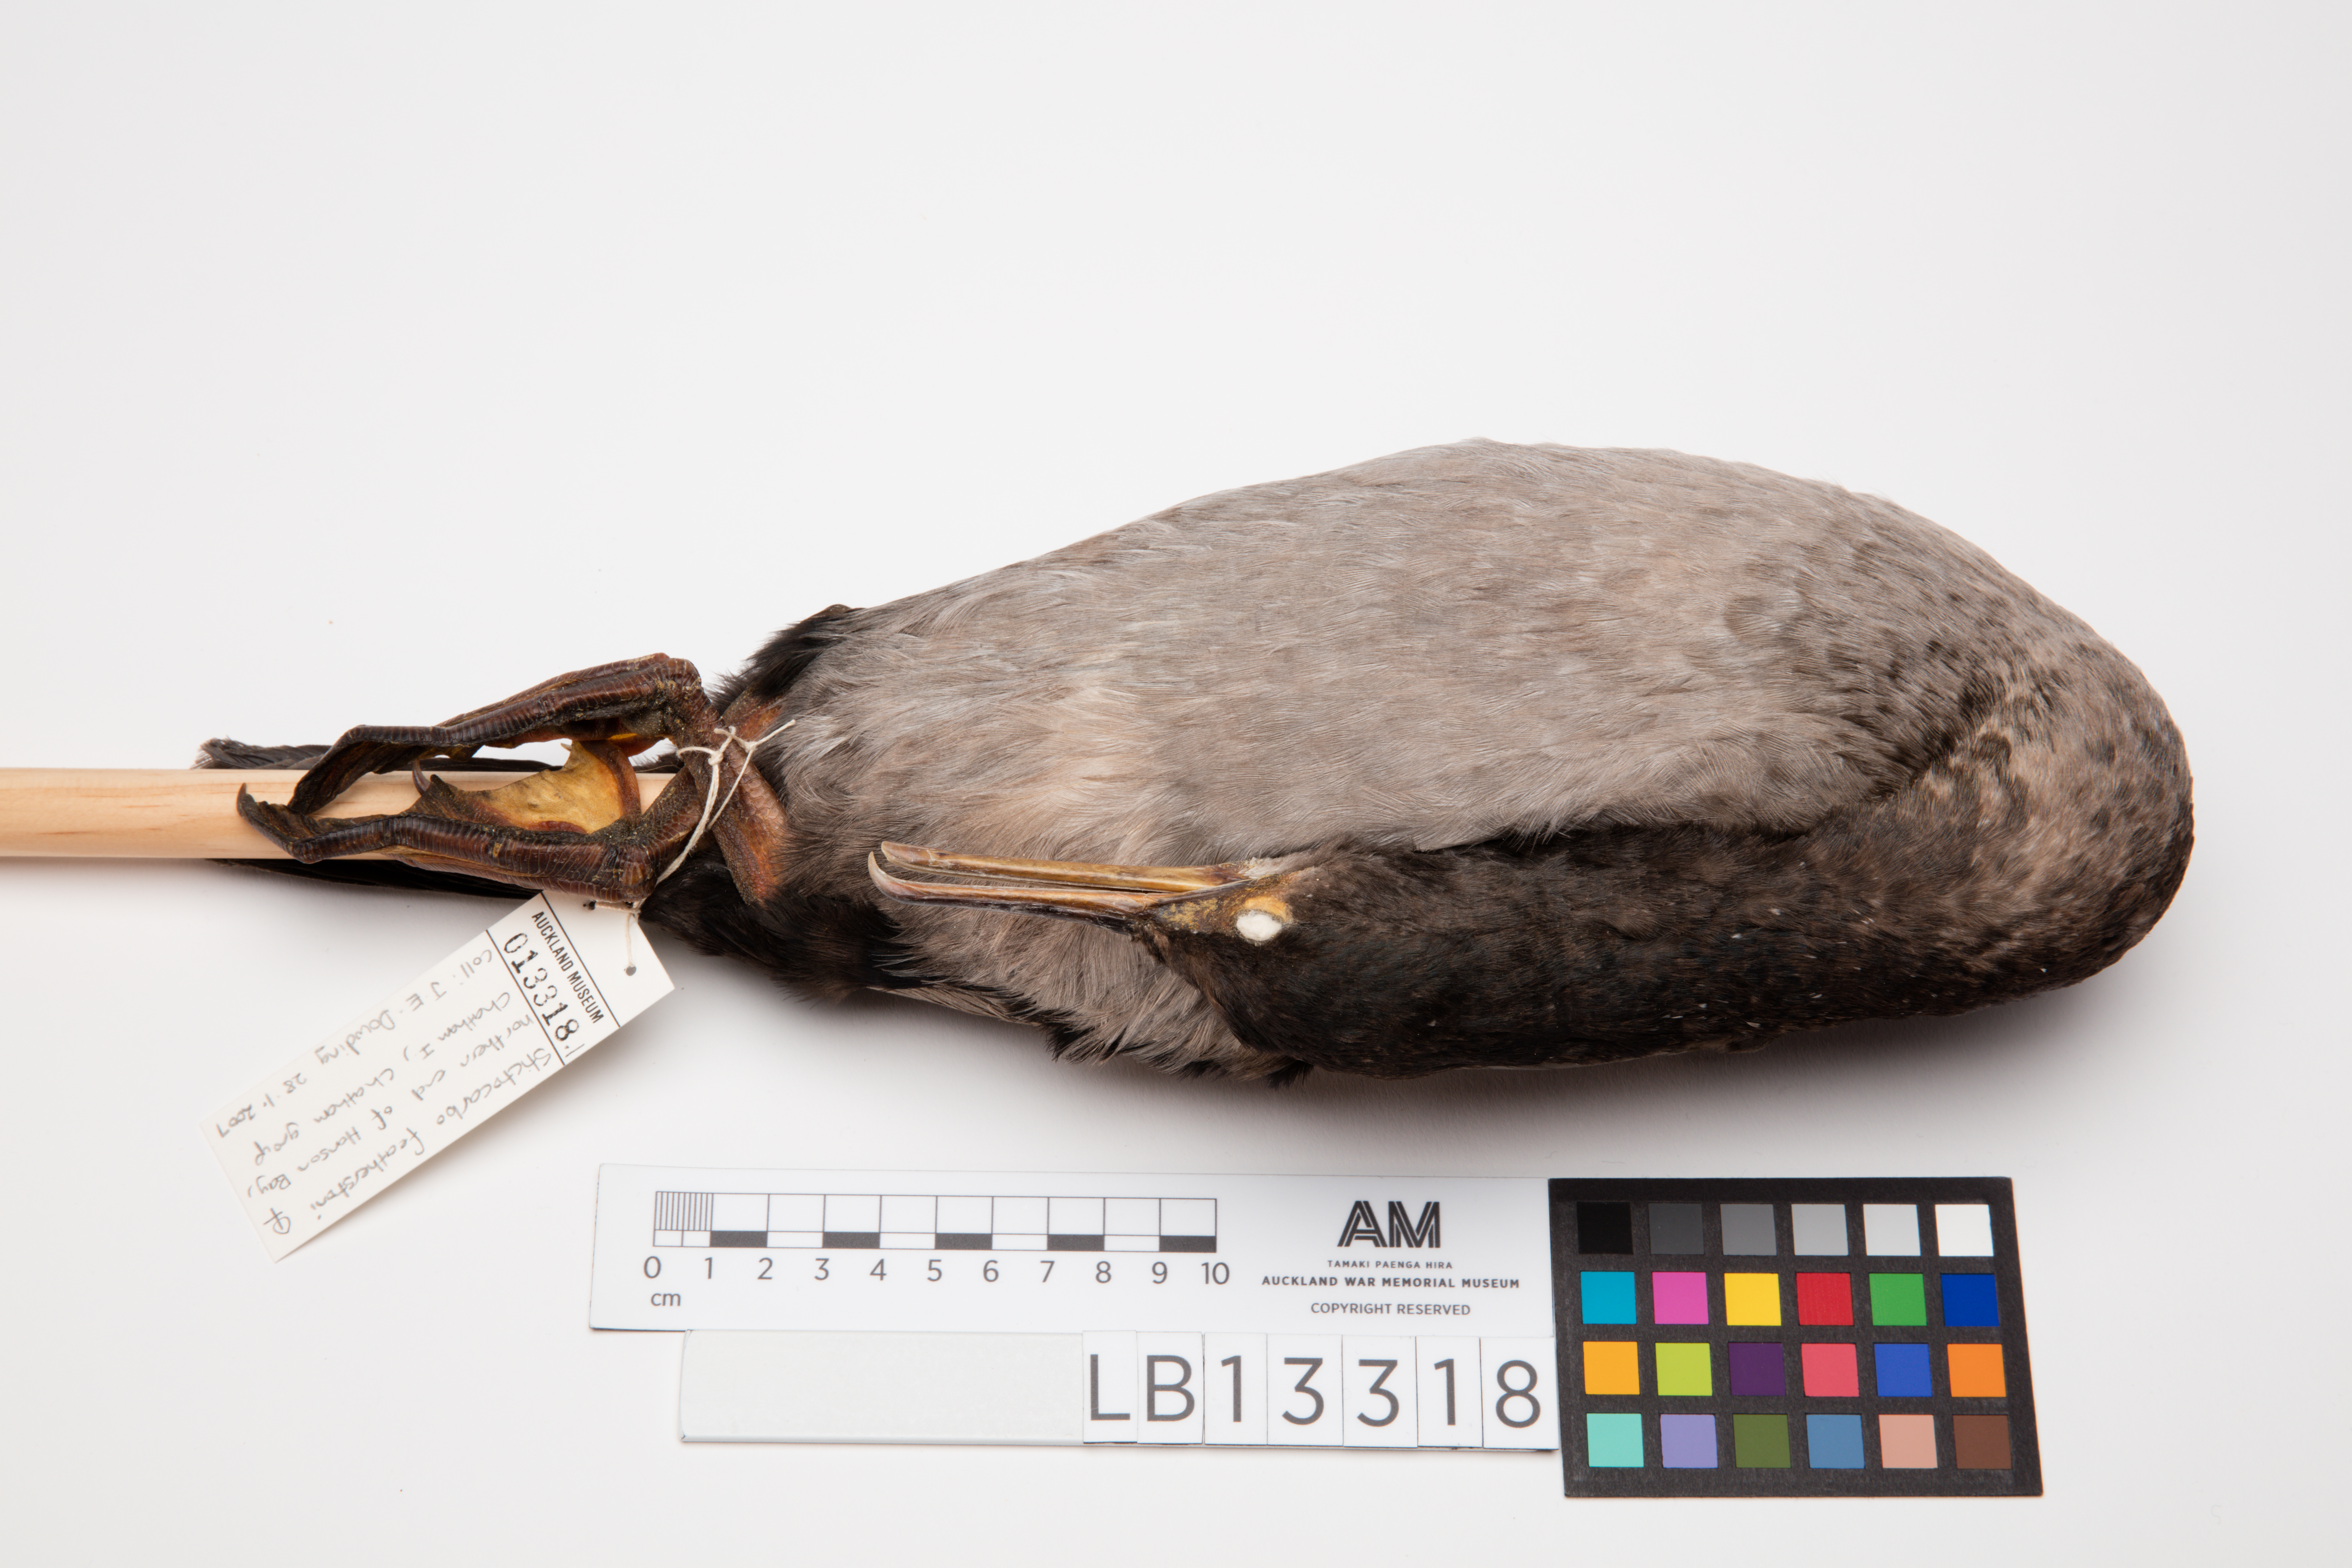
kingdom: Animalia
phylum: Chordata
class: Aves
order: Suliformes
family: Phalacrocoracidae
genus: Phalacrocorax
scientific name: Phalacrocorax featherstoni
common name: Pitt shag
